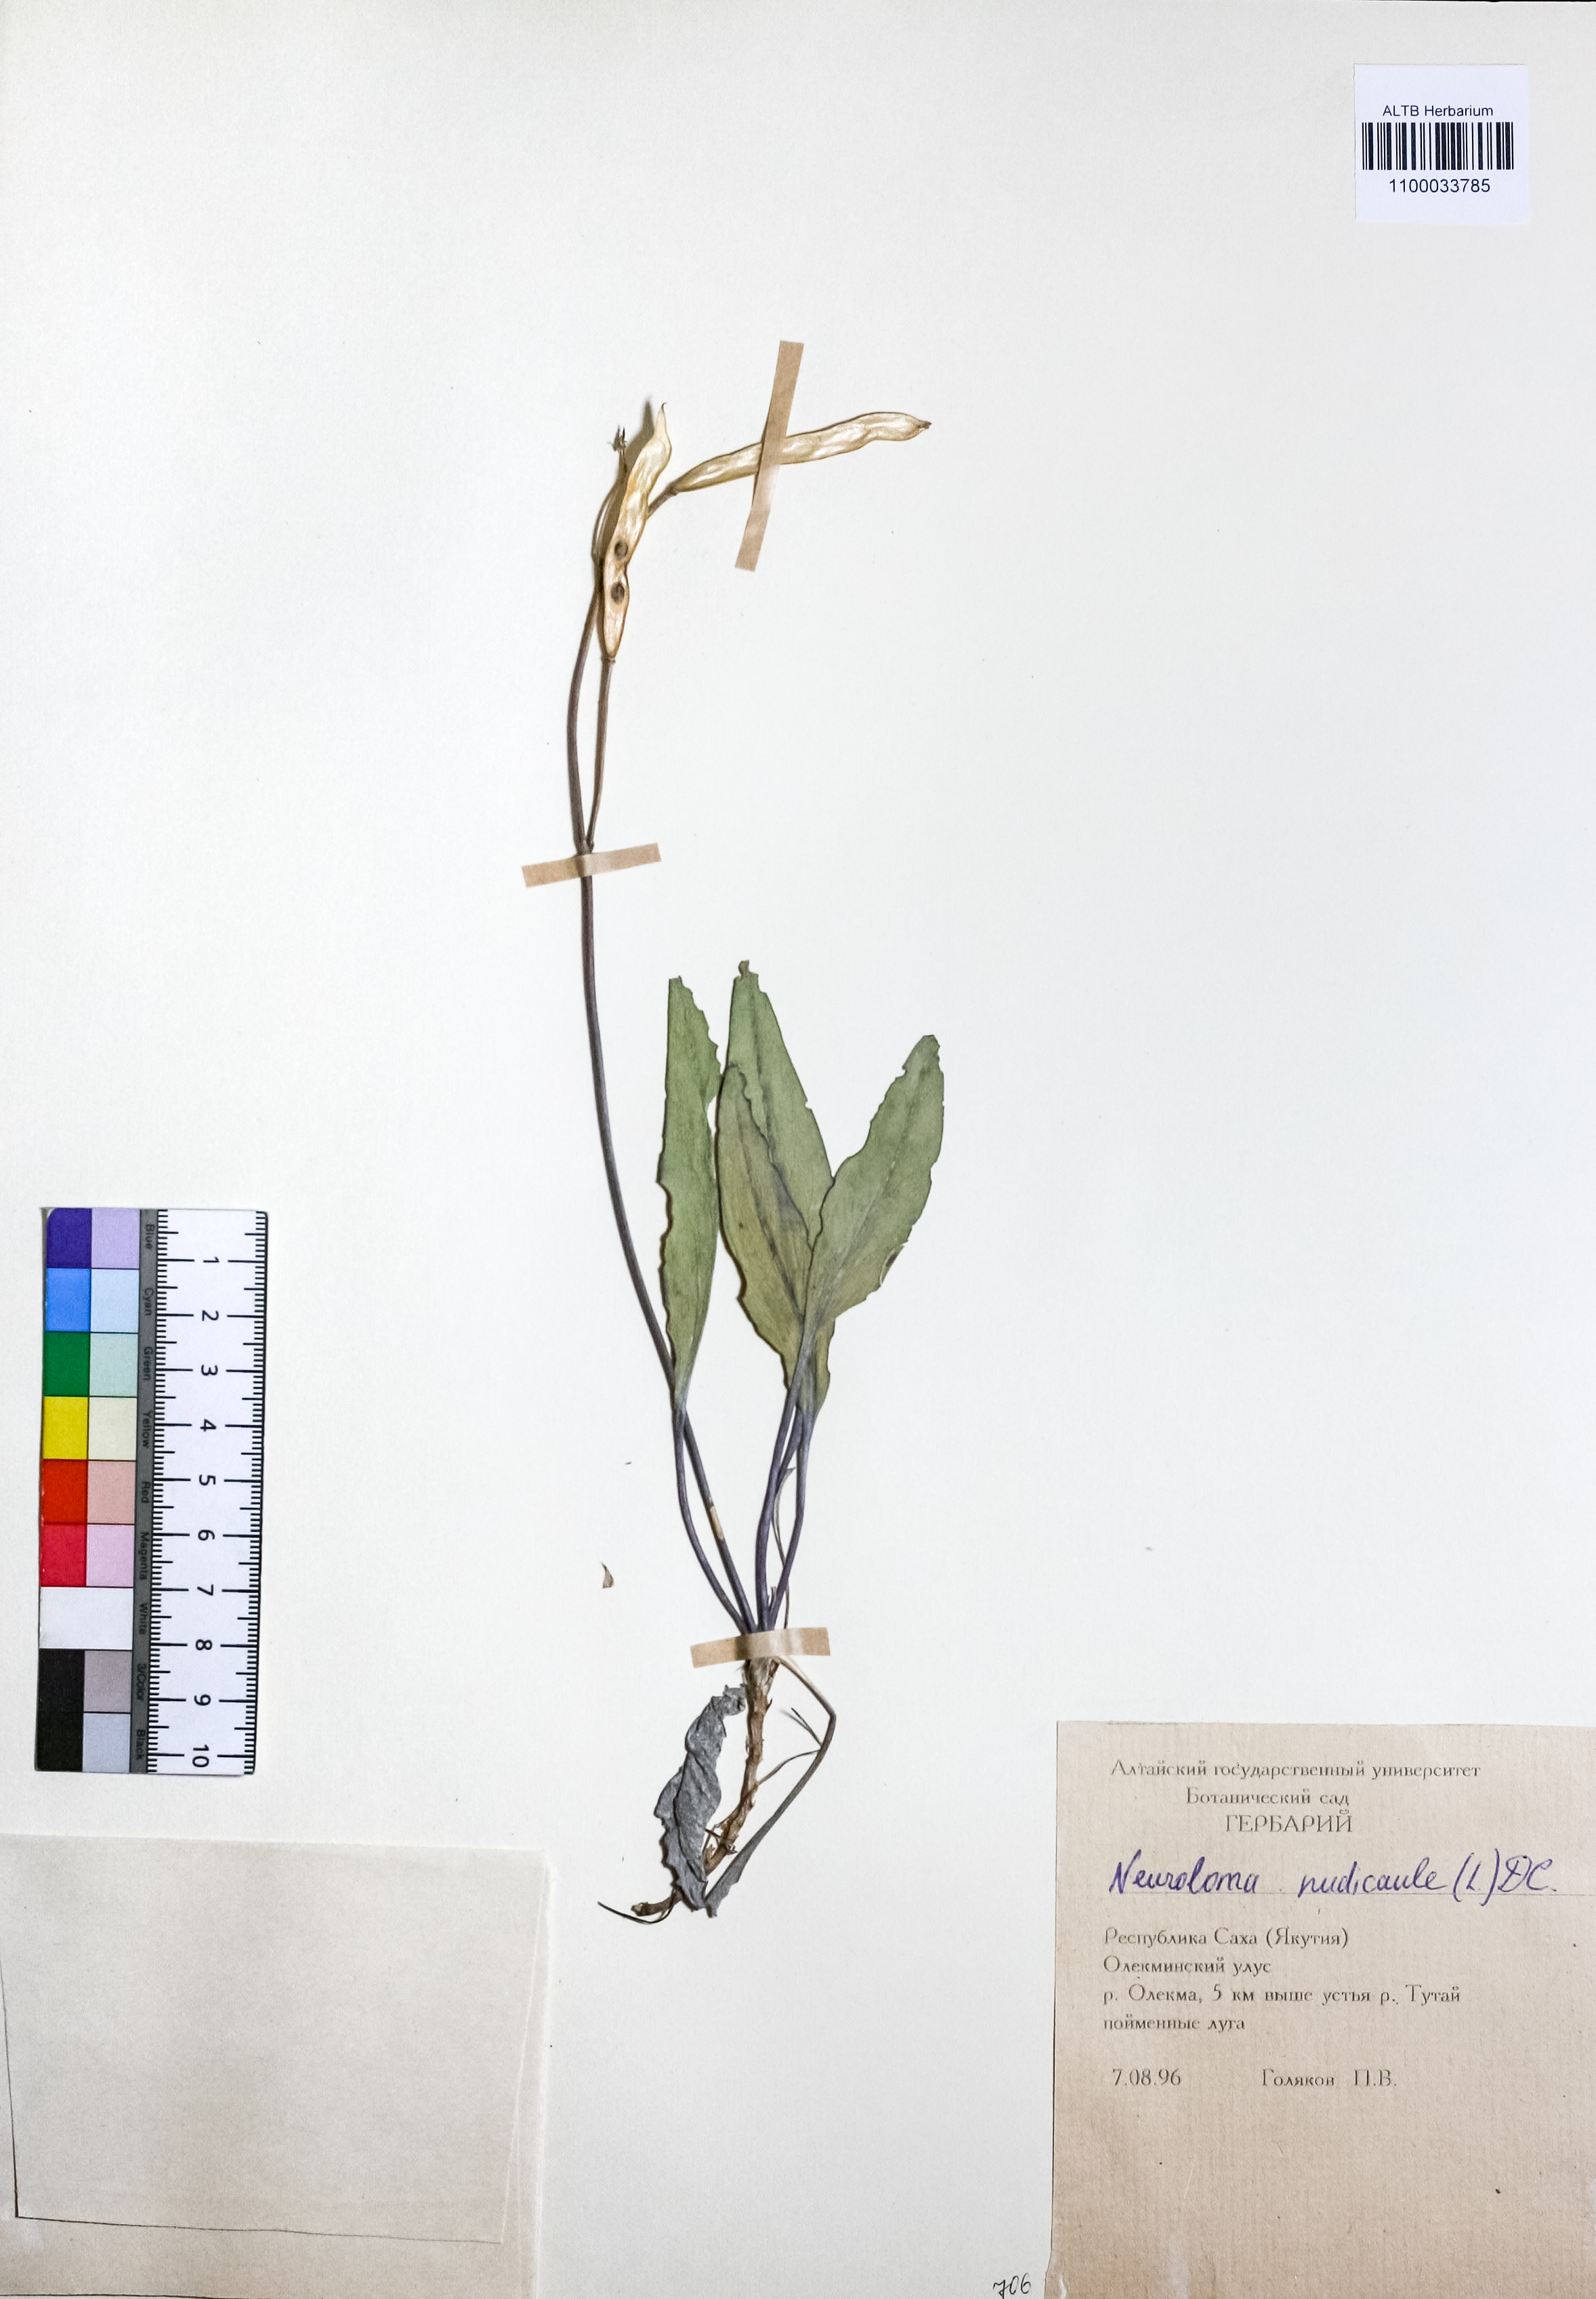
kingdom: Plantae
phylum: Tracheophyta
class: Magnoliopsida
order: Brassicales
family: Brassicaceae
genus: Parrya
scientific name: Parrya nudicaulis
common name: Naked-stemmed false wallflower
